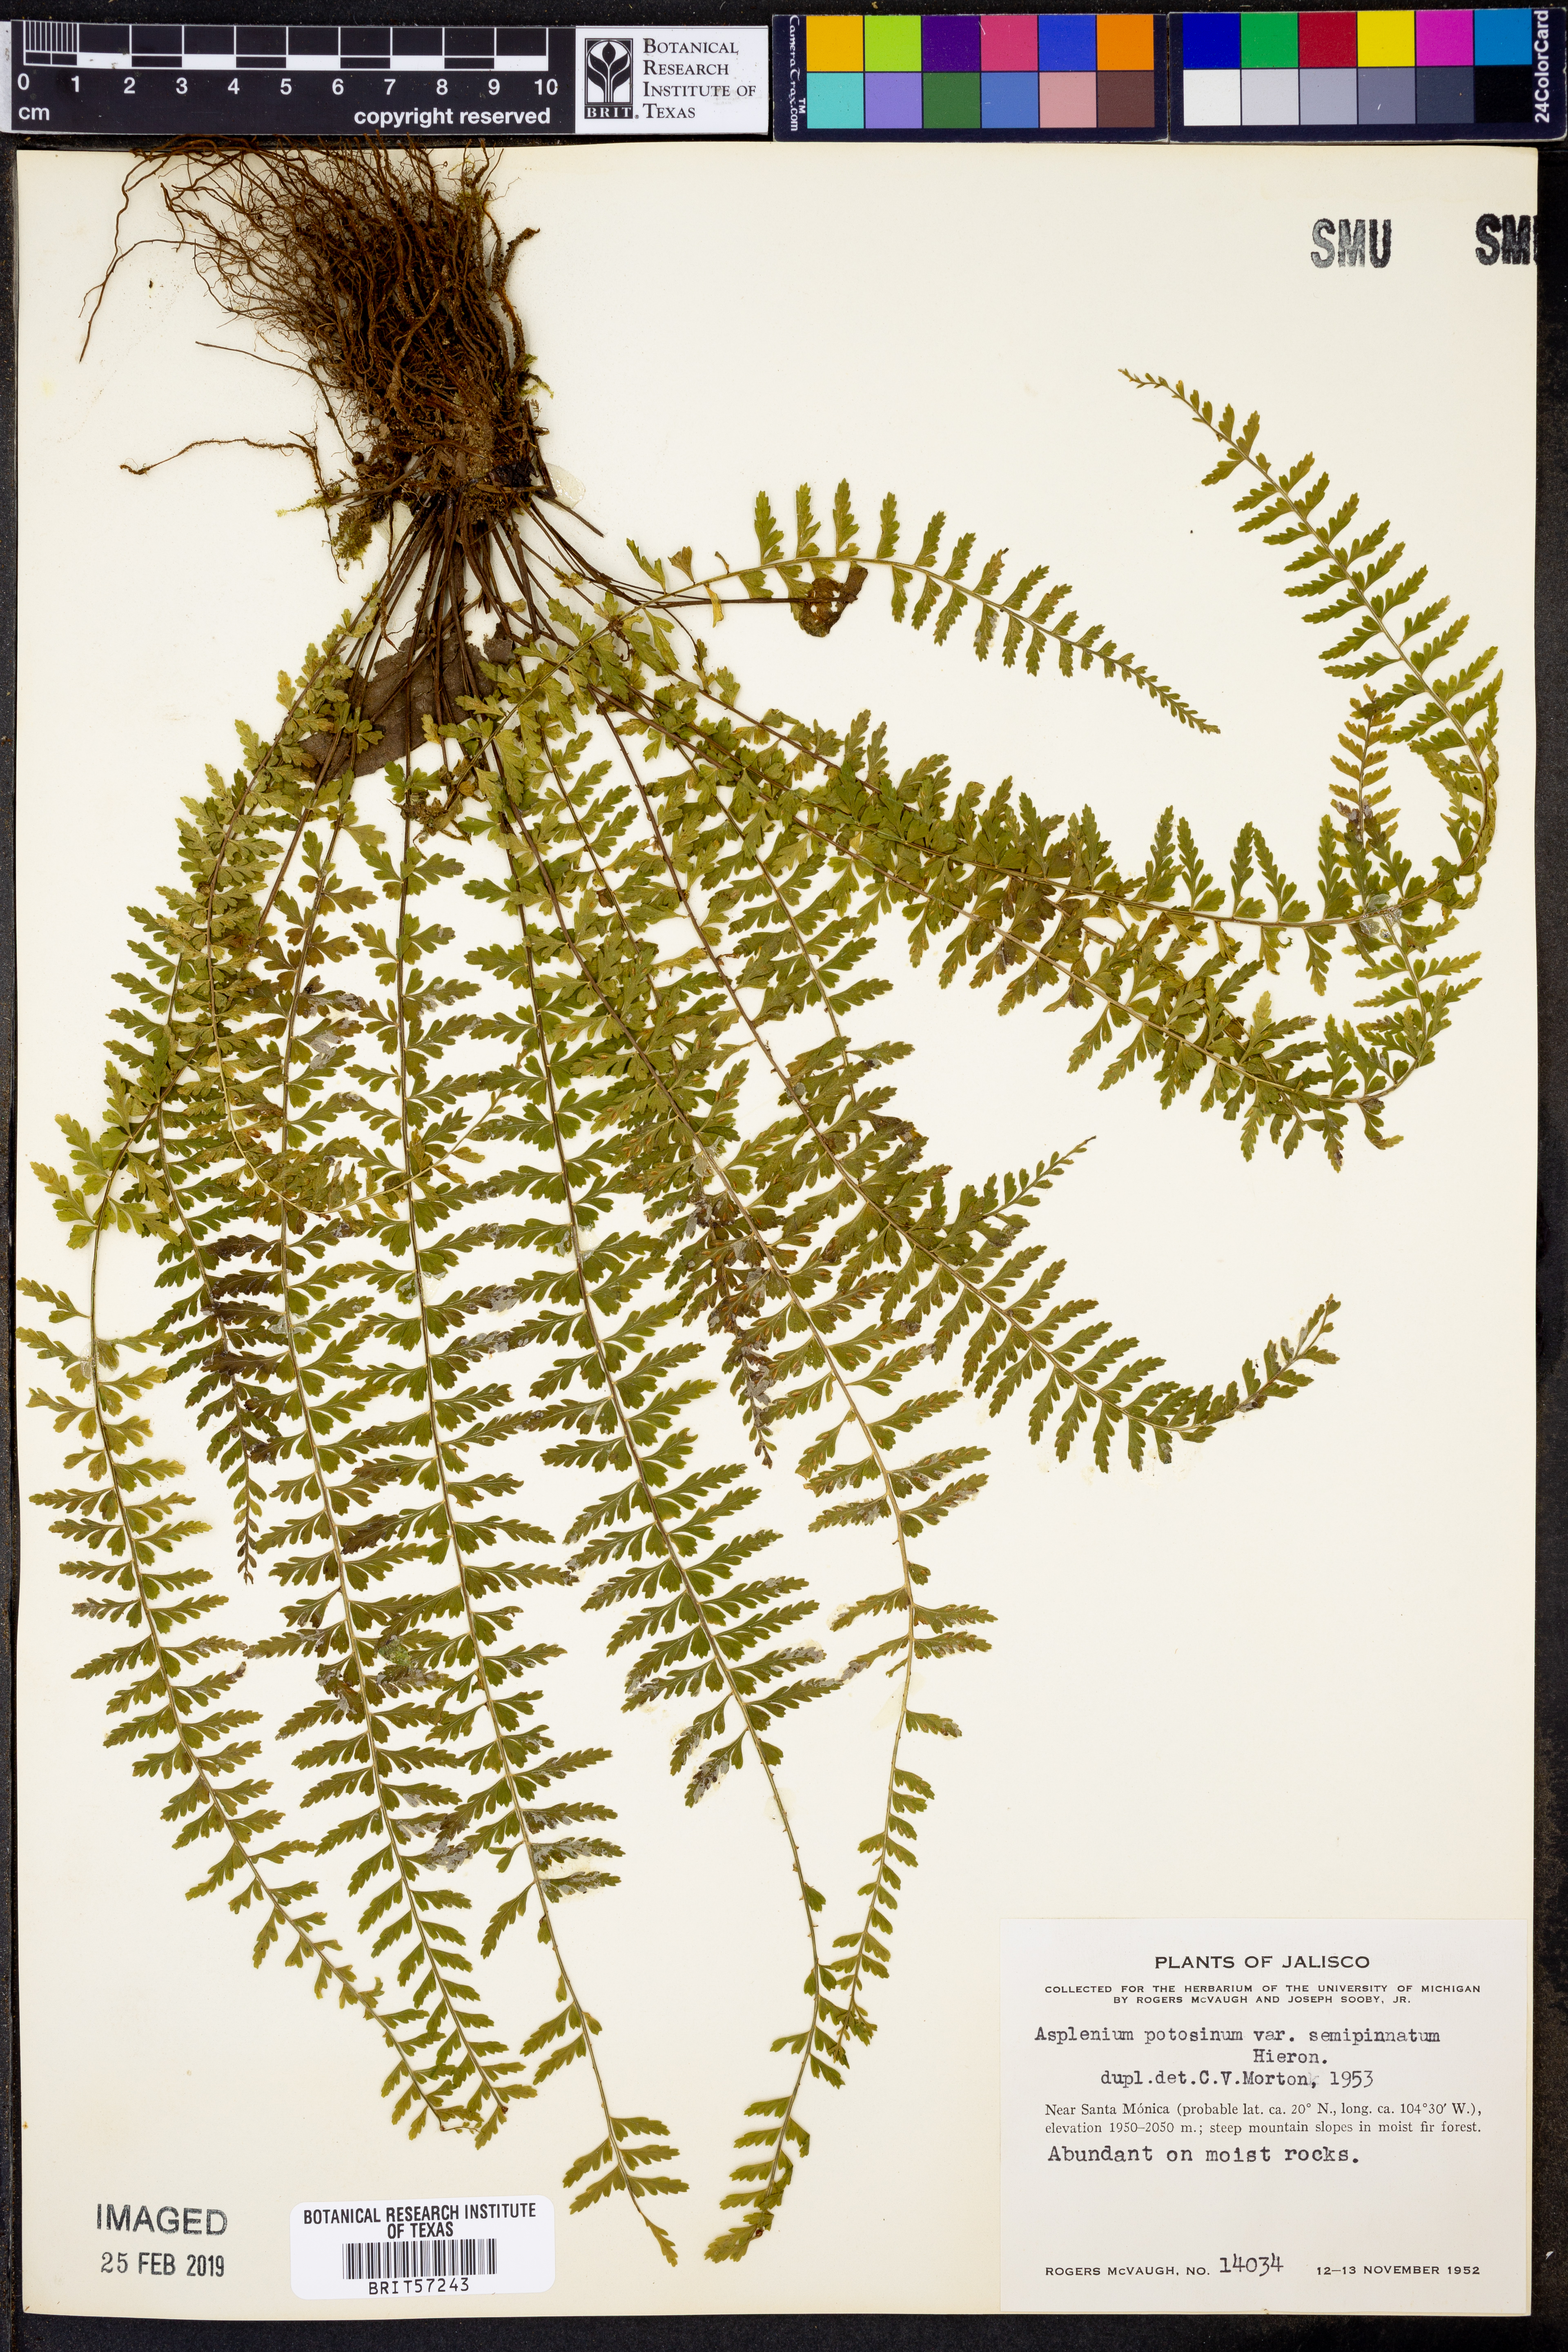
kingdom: Plantae
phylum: Tracheophyta
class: Polypodiopsida
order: Polypodiales
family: Aspleniaceae
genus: Asplenium
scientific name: Asplenium semipinnatum
